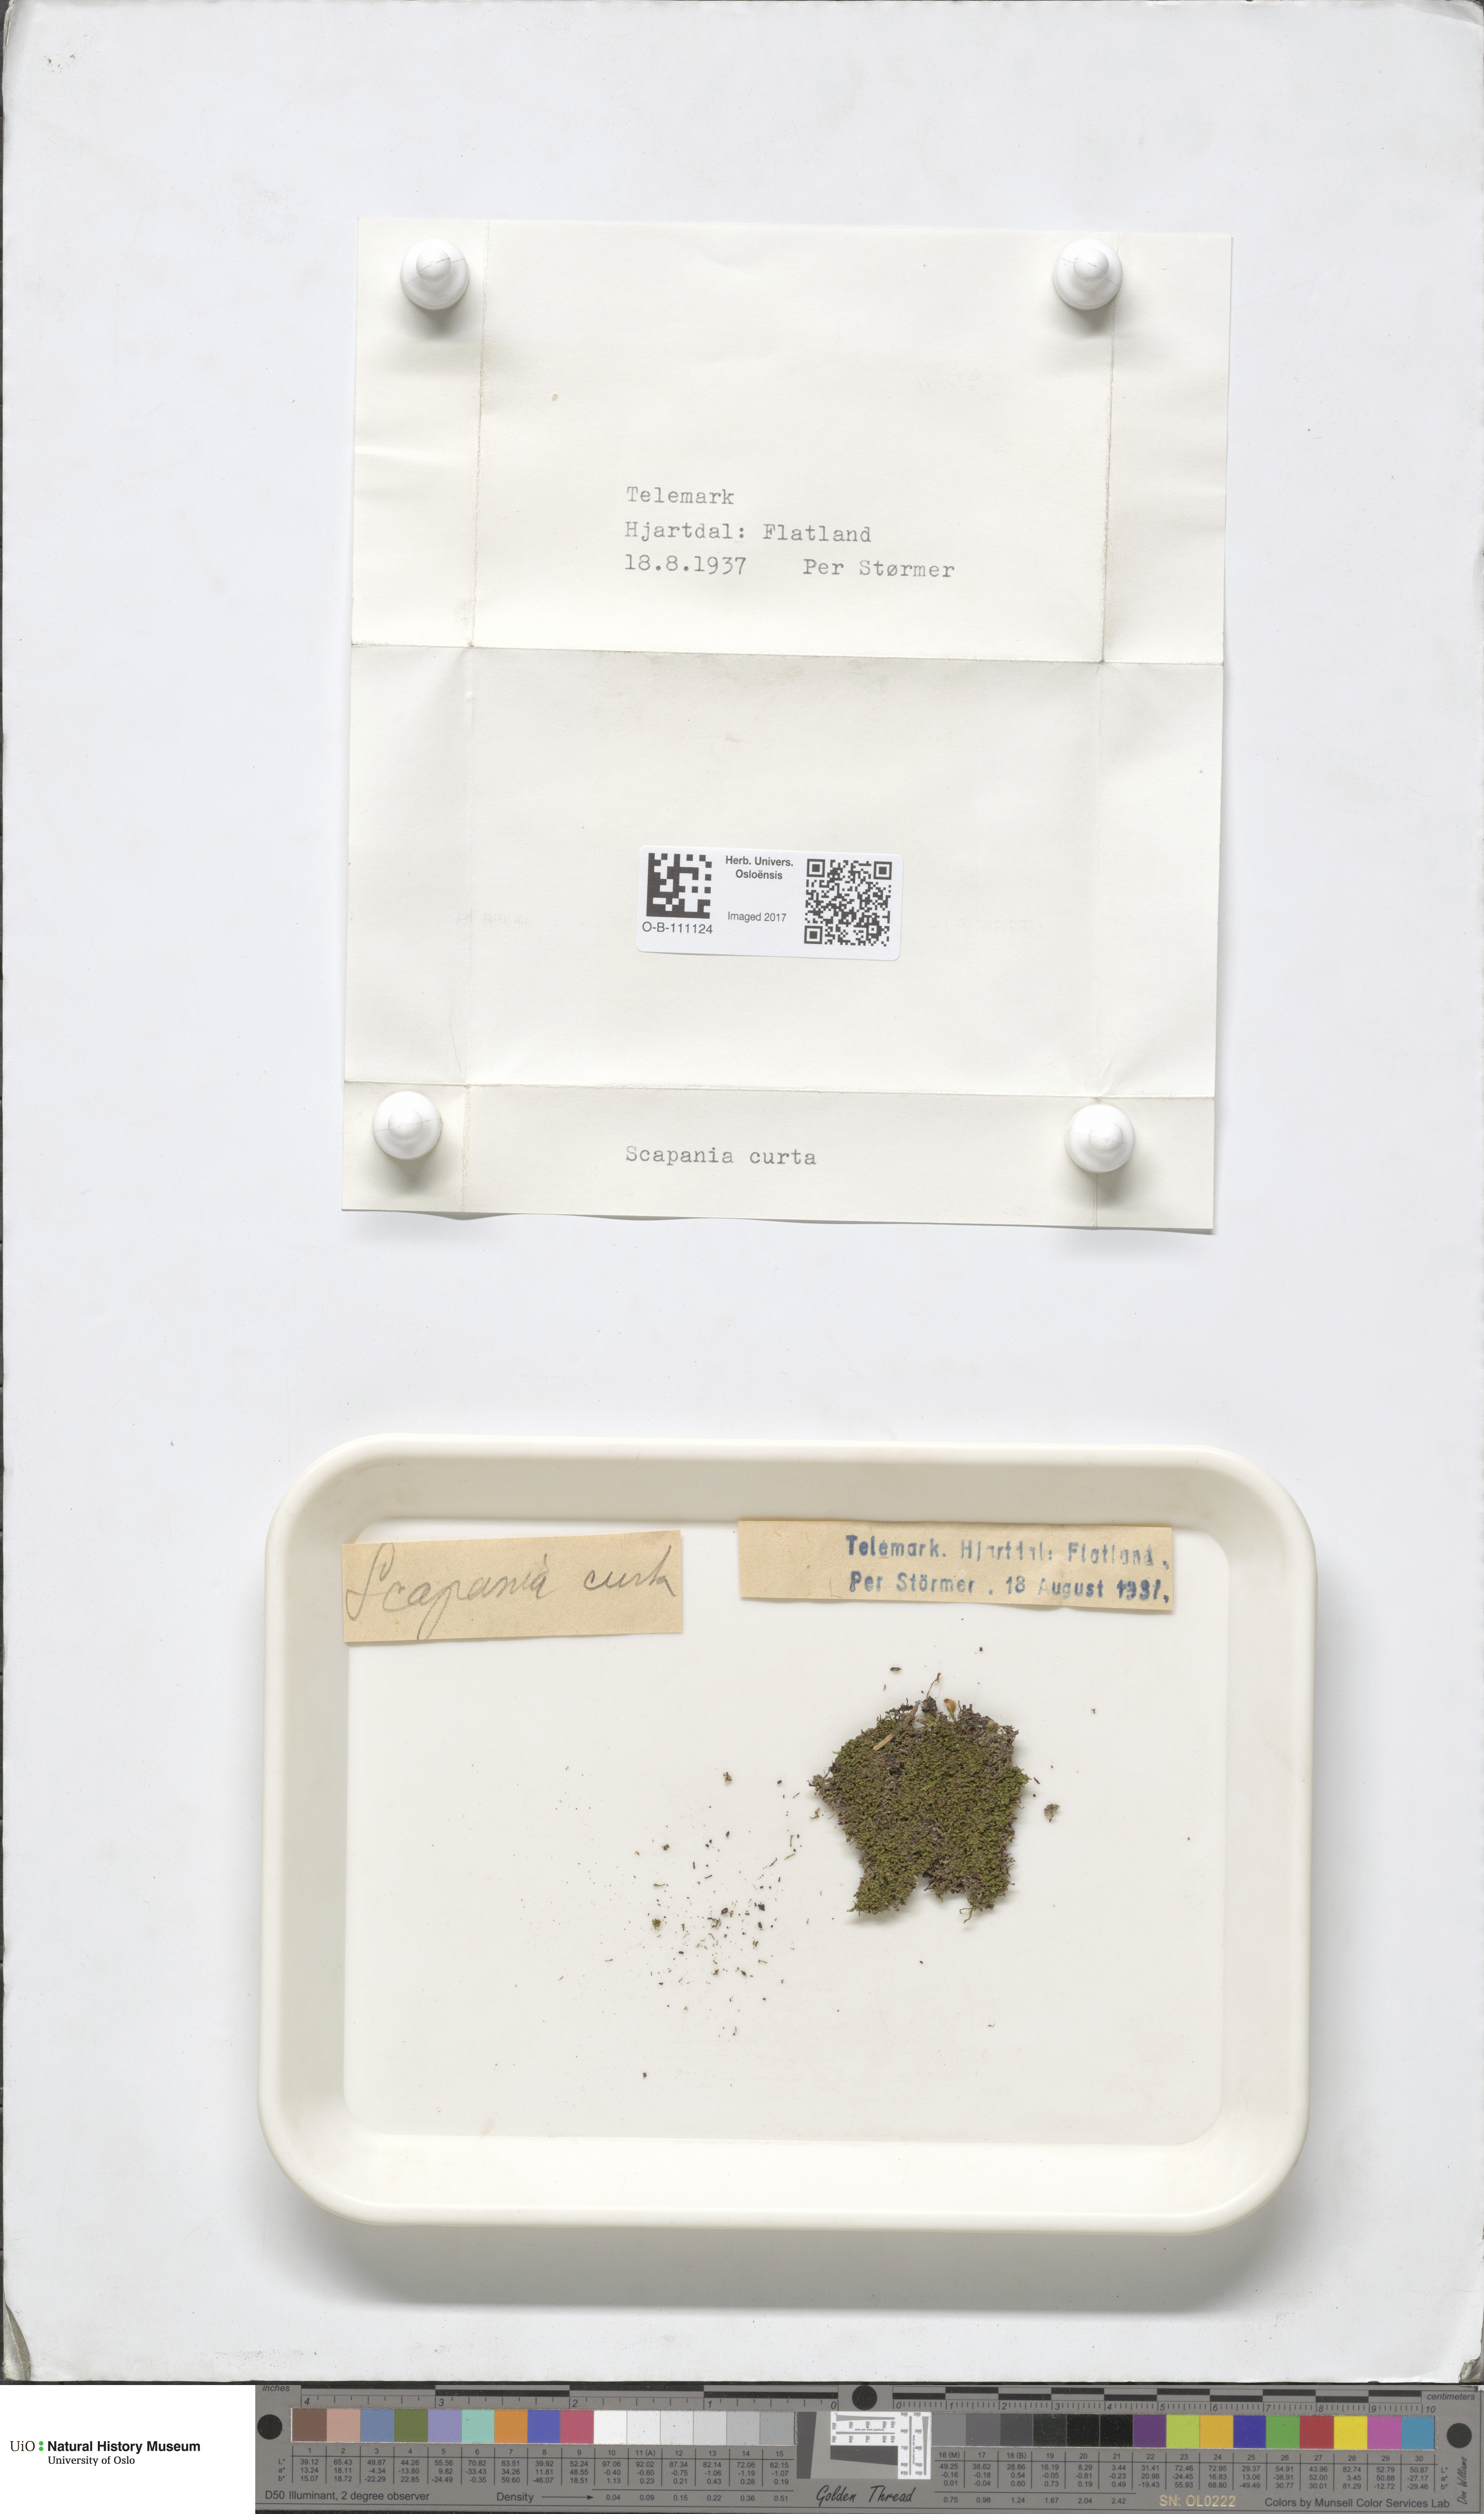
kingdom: Plantae
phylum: Marchantiophyta
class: Jungermanniopsida
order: Jungermanniales
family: Scapaniaceae
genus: Scapania
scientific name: Scapania curta
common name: Least earwort
